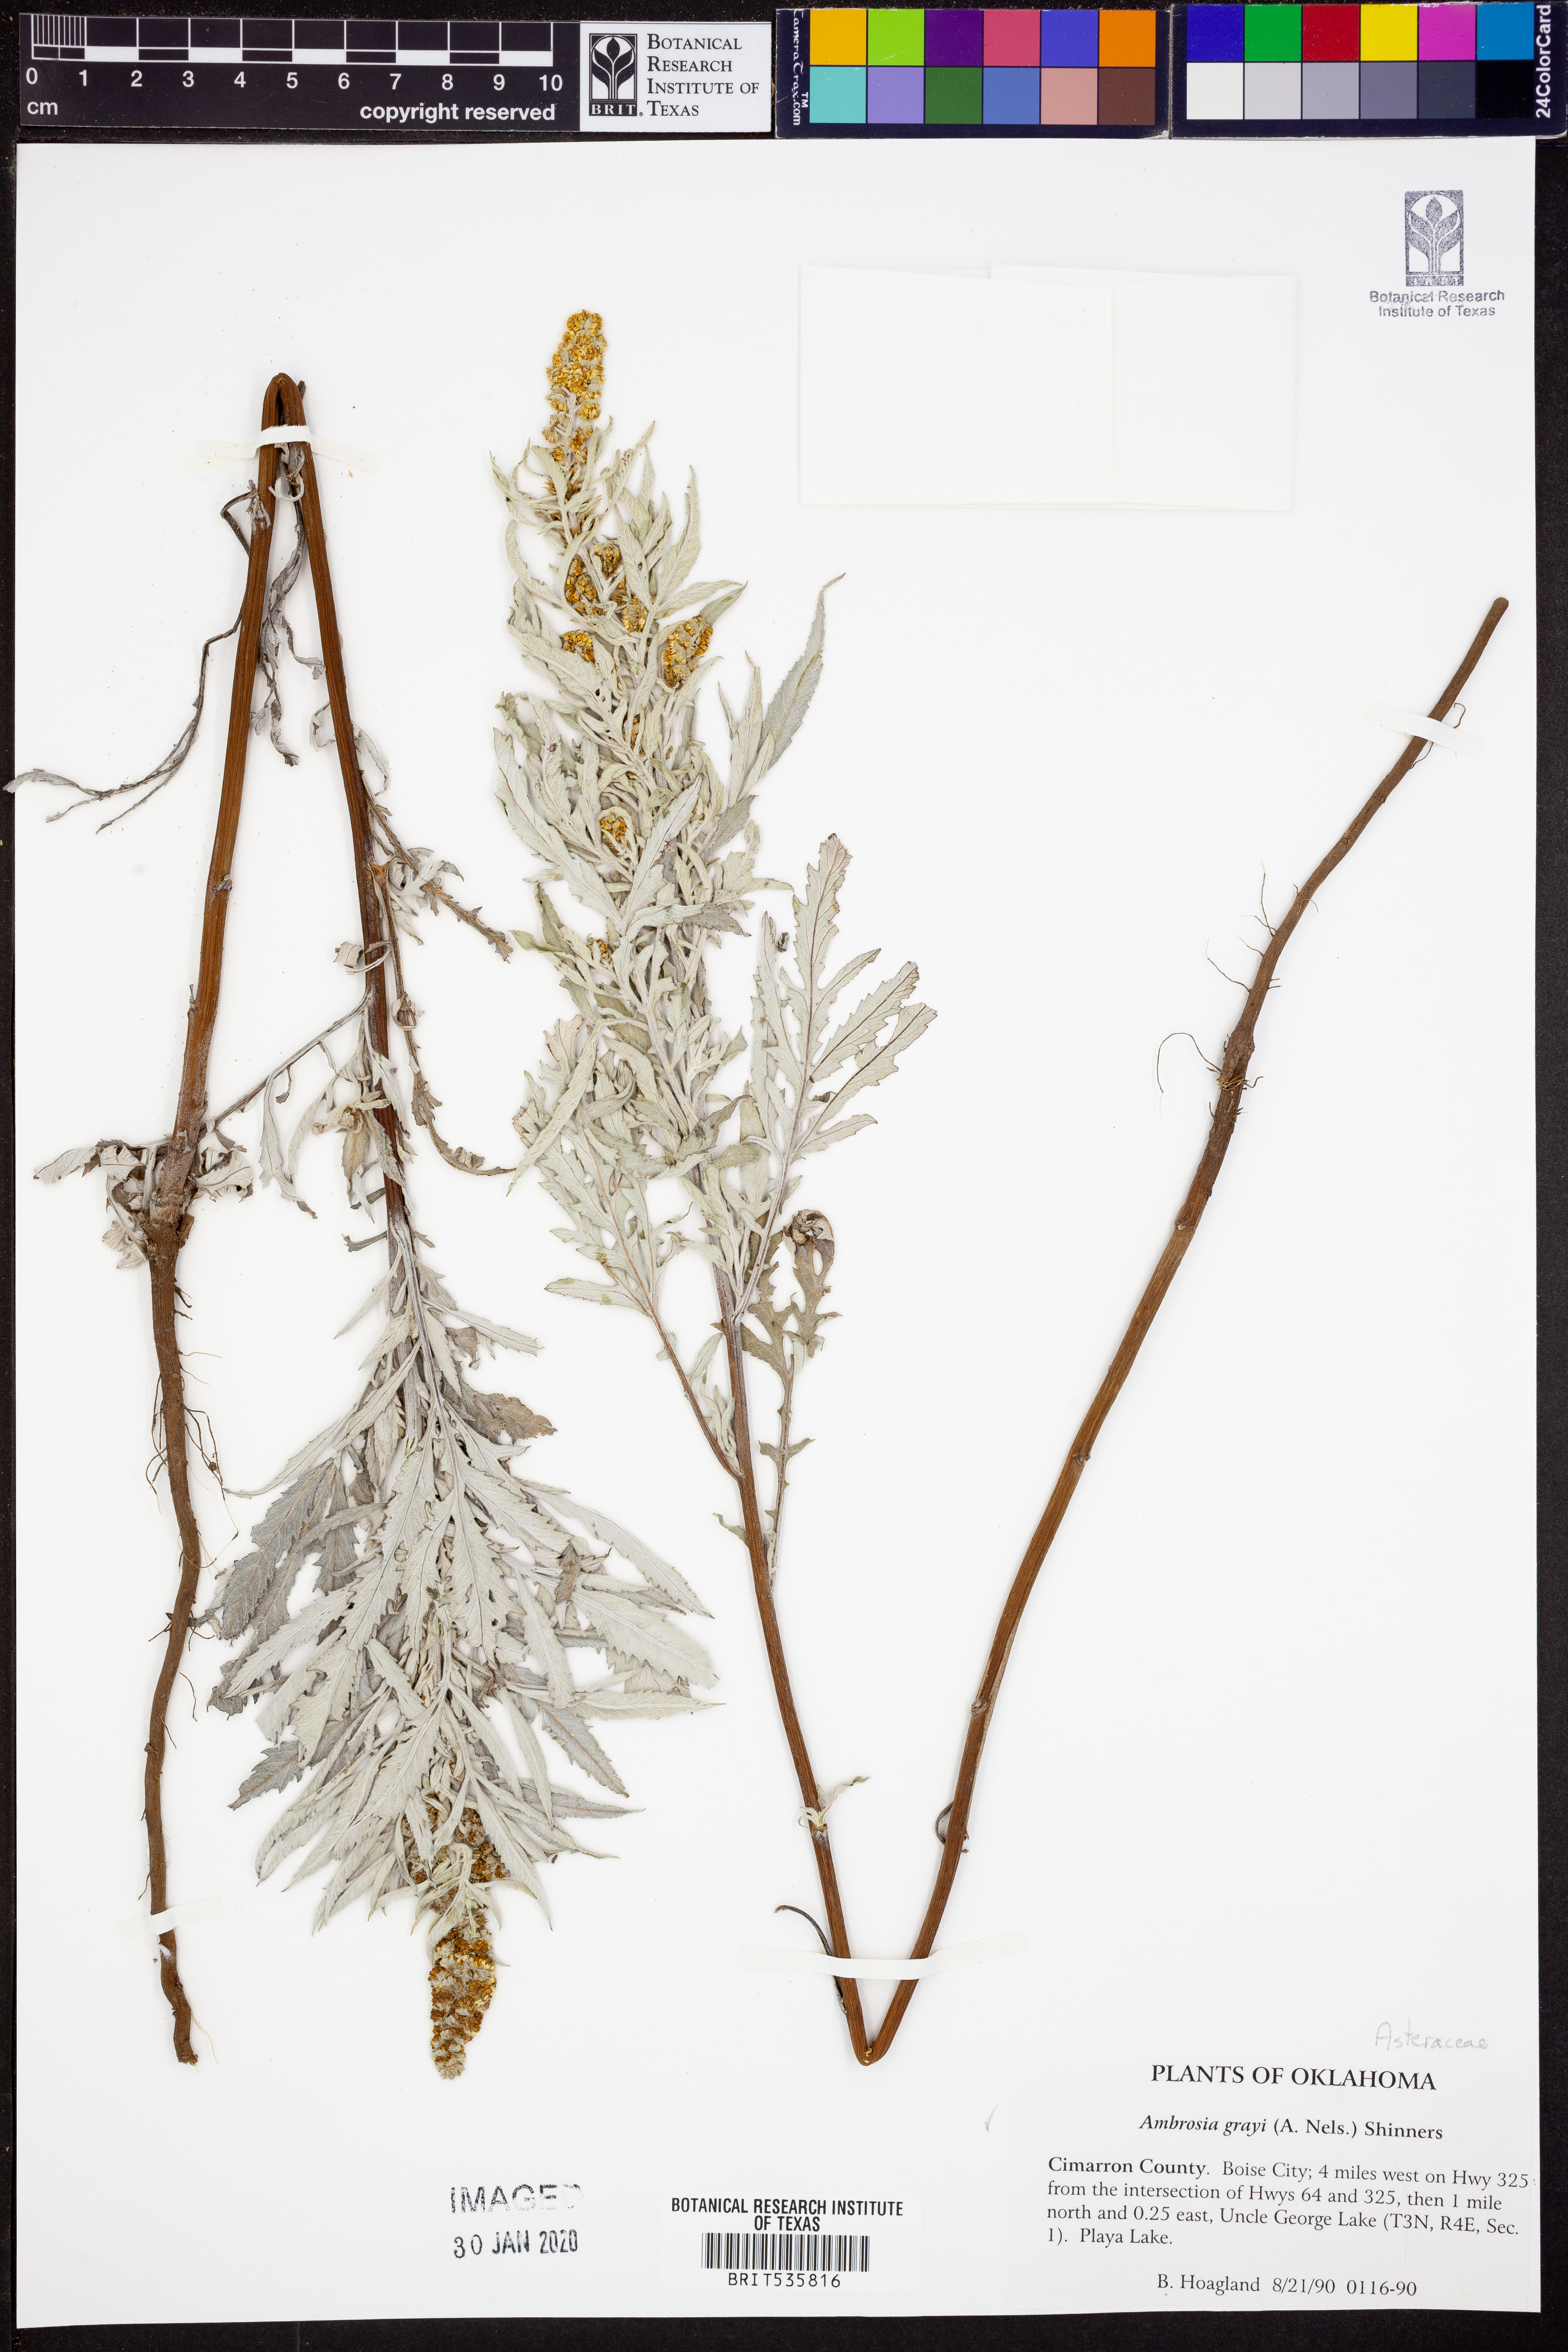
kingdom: Plantae
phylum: Tracheophyta
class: Magnoliopsida
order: Asterales
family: Asteraceae
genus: Ambrosia
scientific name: Ambrosia grayi
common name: Bur ragweed
